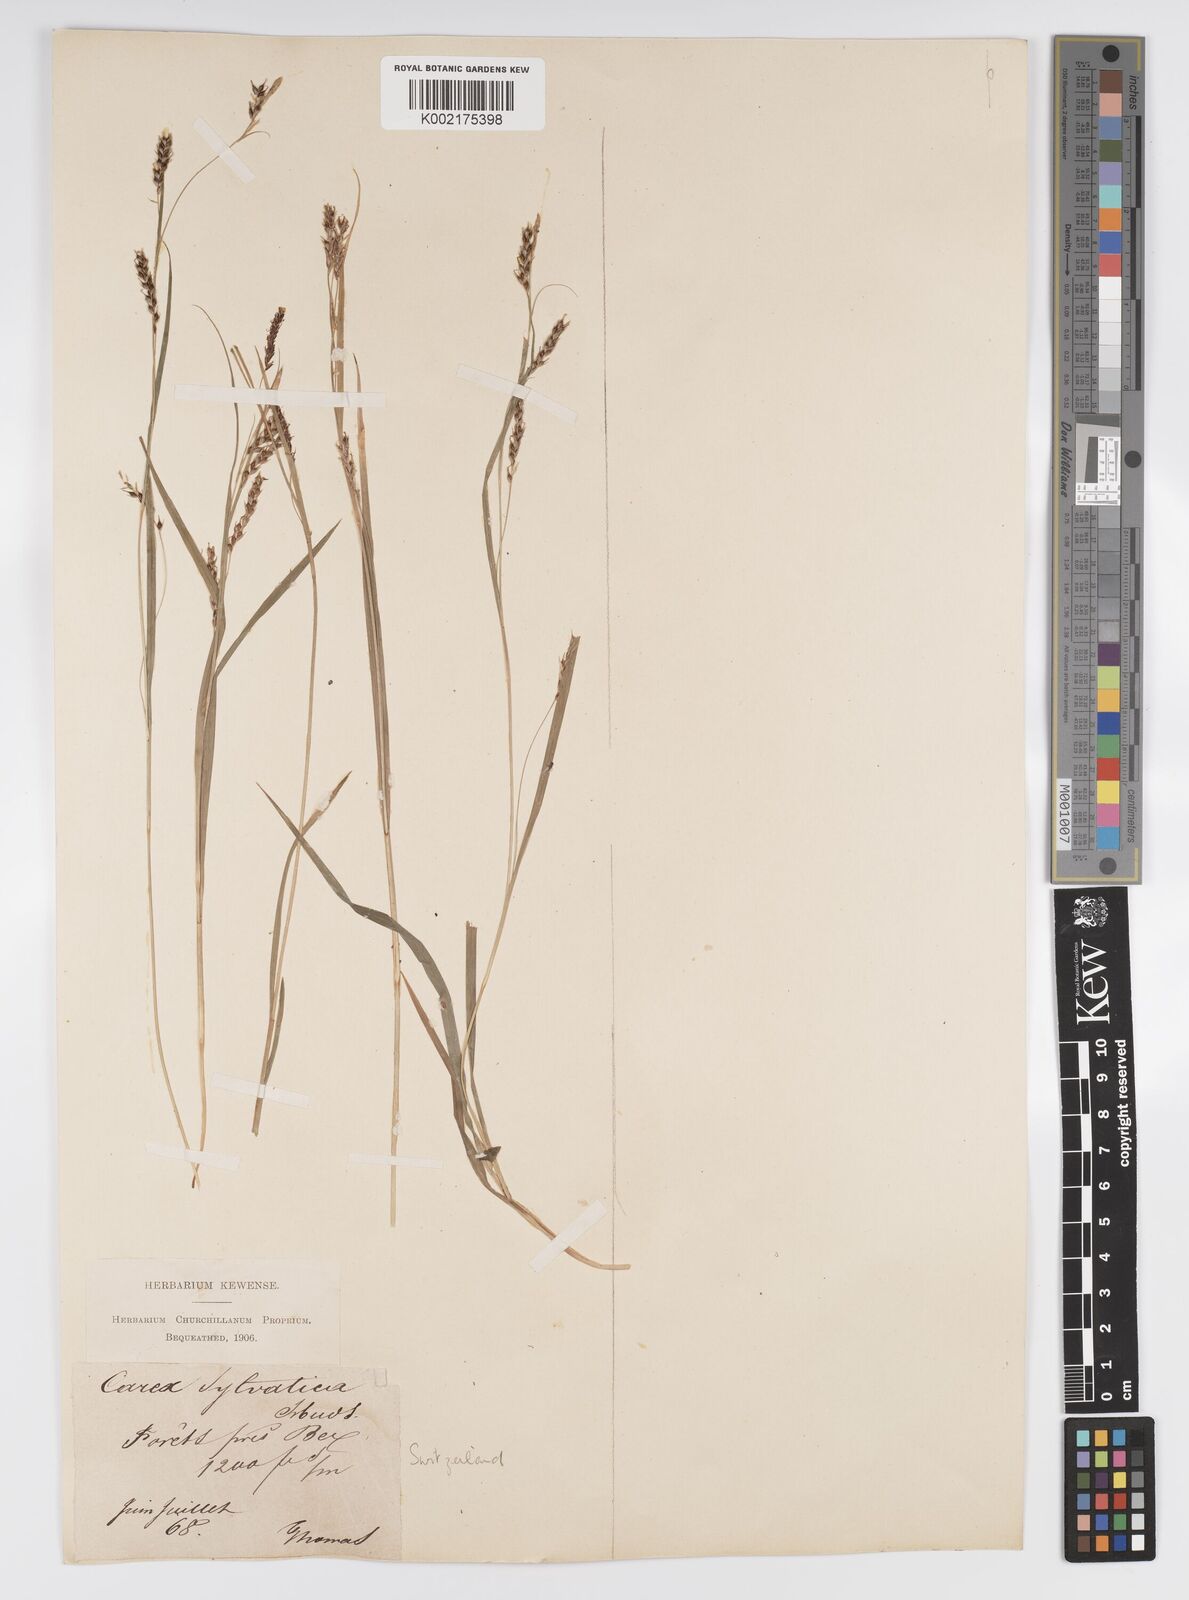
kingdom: Plantae
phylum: Tracheophyta
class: Liliopsida
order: Poales
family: Cyperaceae
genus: Carex
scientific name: Carex sylvatica
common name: Wood-sedge
